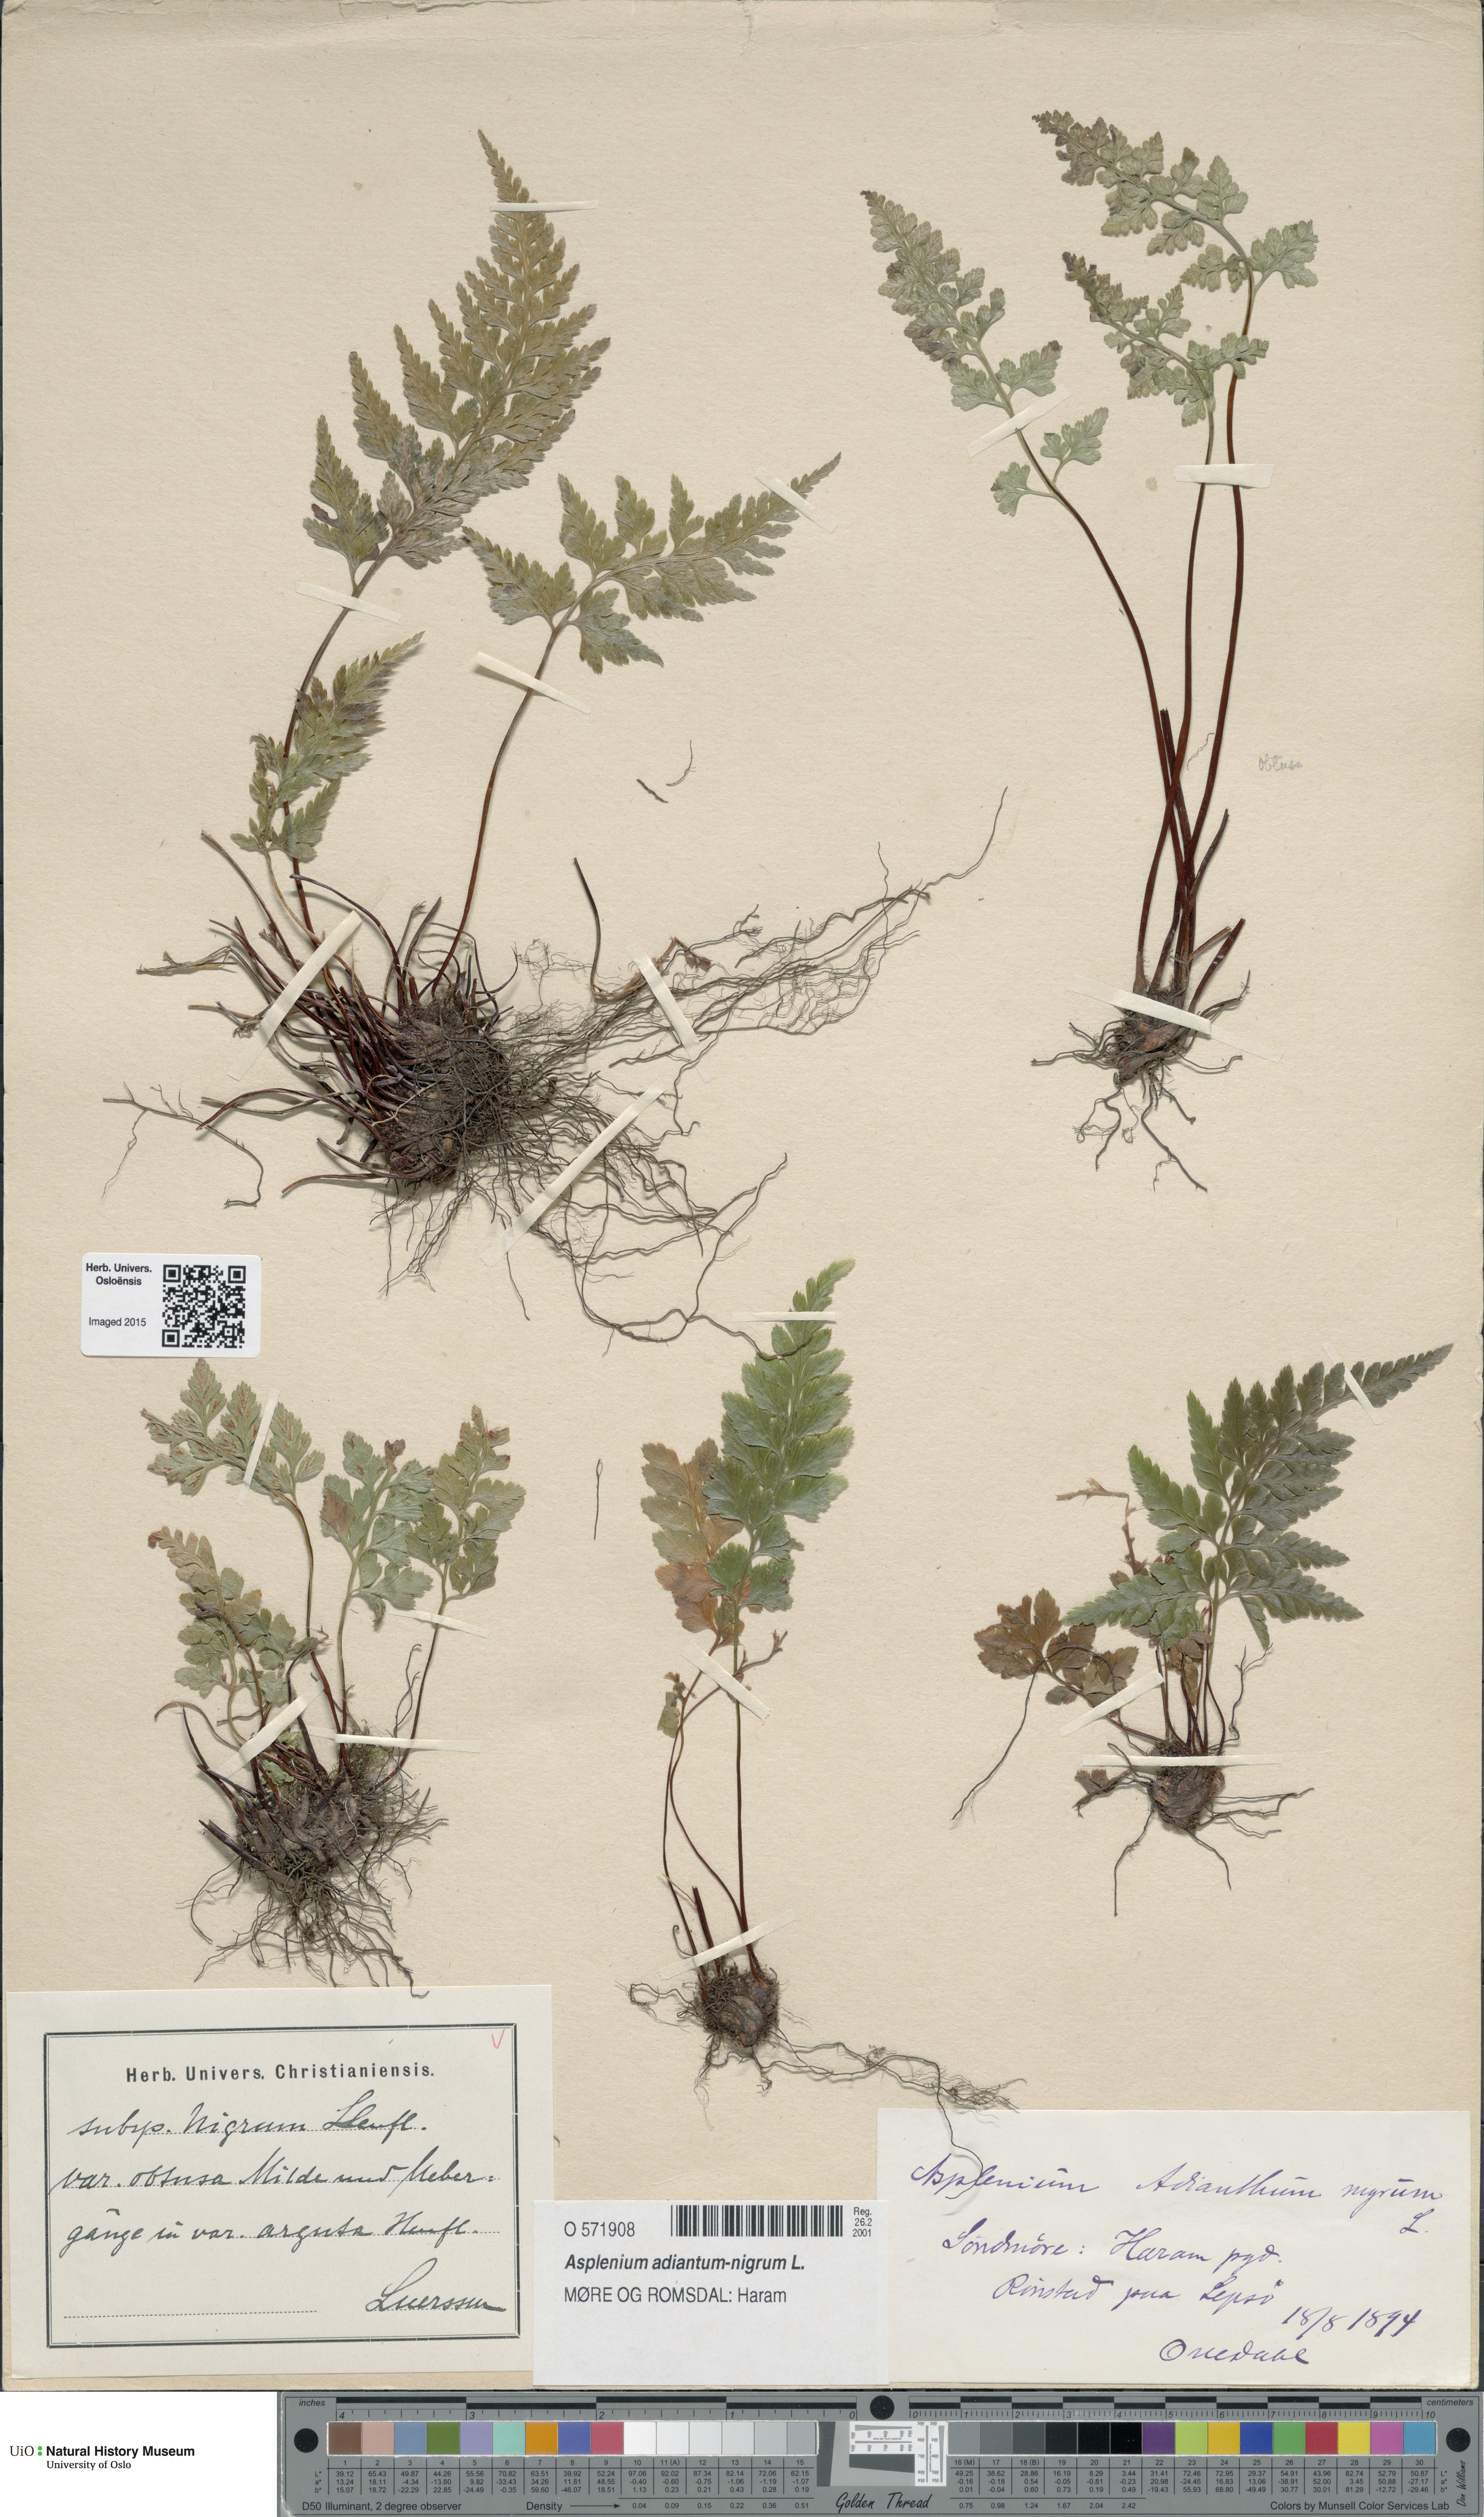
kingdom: Plantae
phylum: Tracheophyta
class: Polypodiopsida
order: Polypodiales
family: Aspleniaceae
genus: Asplenium
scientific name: Asplenium adiantum-nigrum
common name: Black spleenwort
